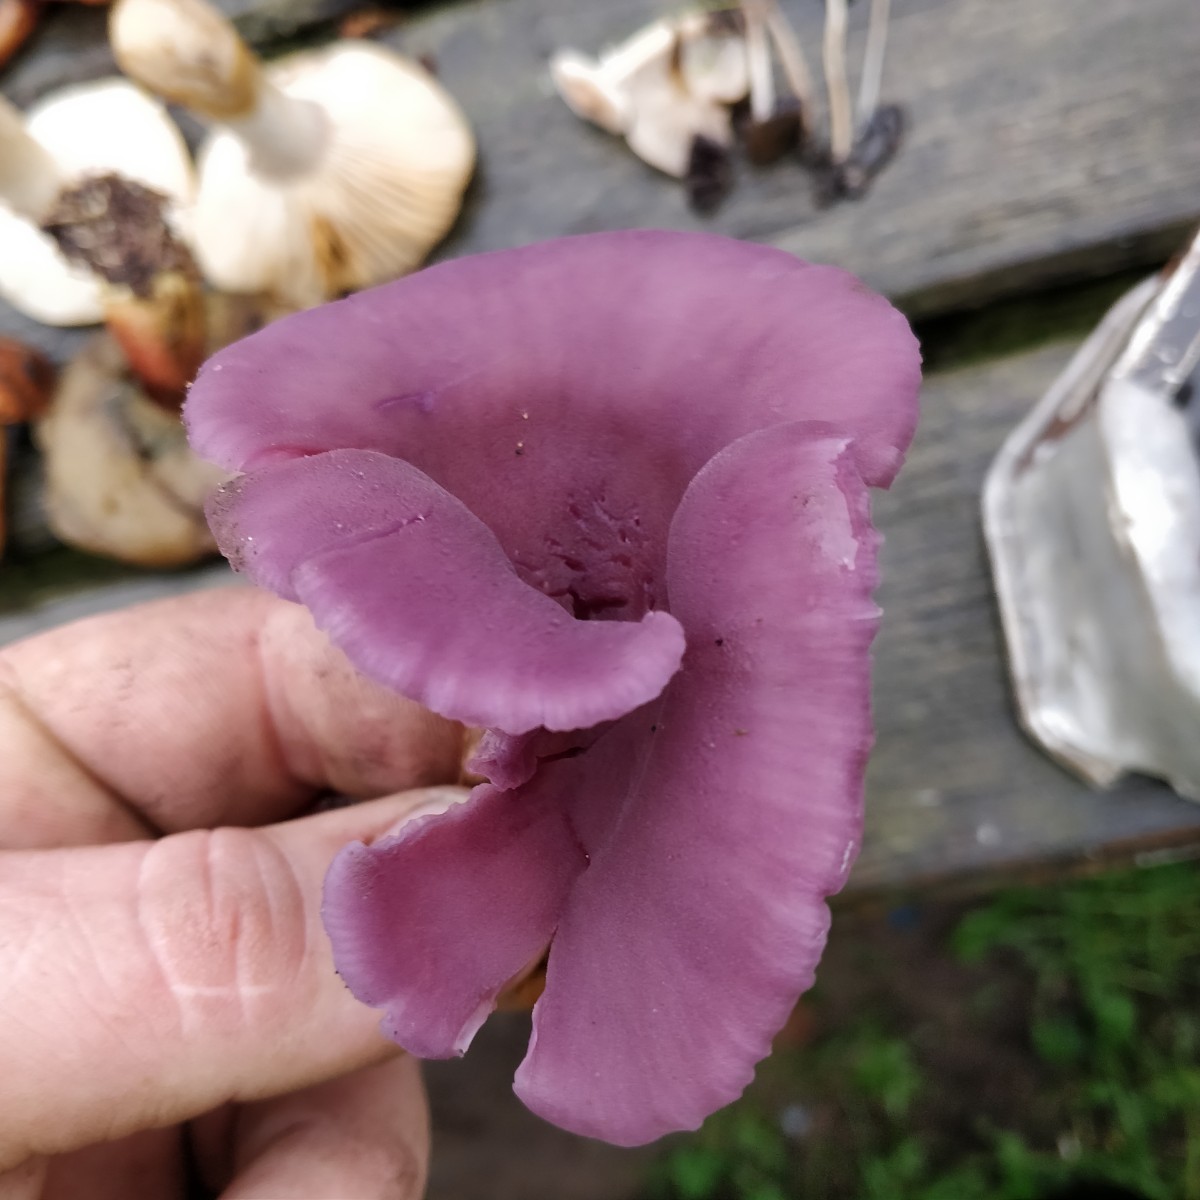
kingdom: Fungi
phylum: Basidiomycota
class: Agaricomycetes
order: Agaricales
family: Hydnangiaceae
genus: Laccaria
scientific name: Laccaria amethystina
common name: violet ametysthat
